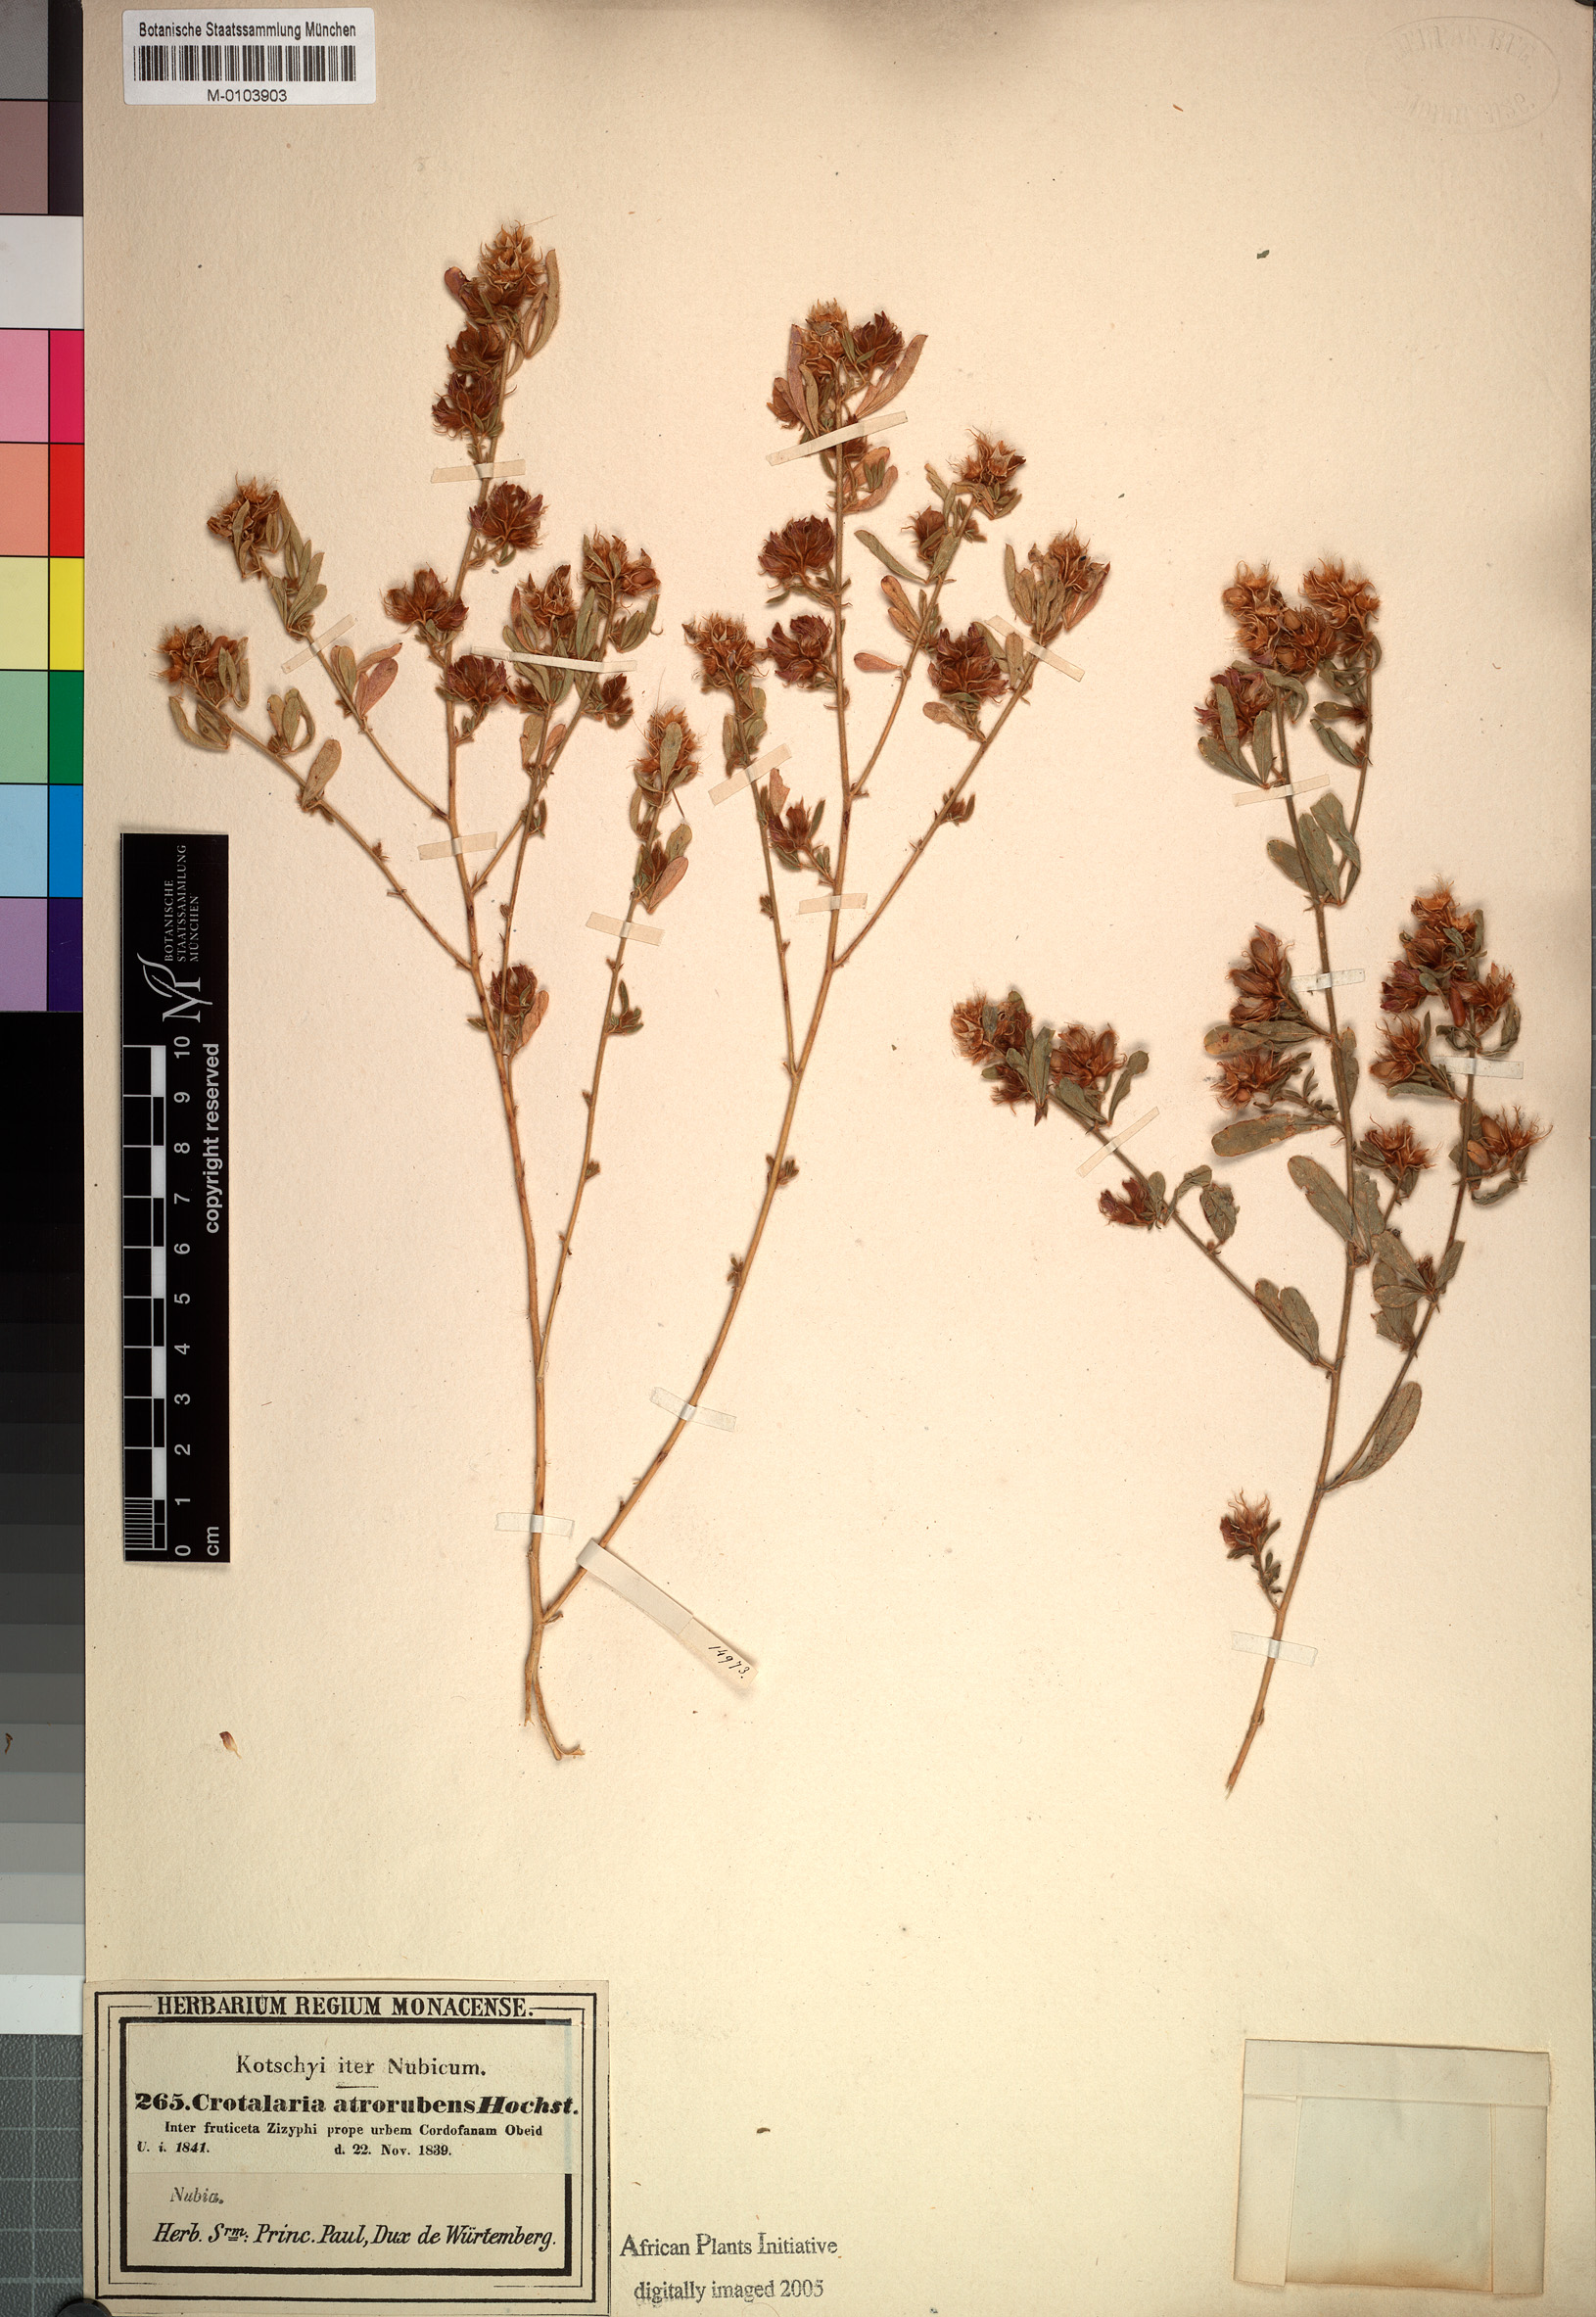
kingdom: Plantae
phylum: Tracheophyta
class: Magnoliopsida
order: Fabales
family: Fabaceae
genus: Crotalaria
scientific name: Crotalaria atrorubens
